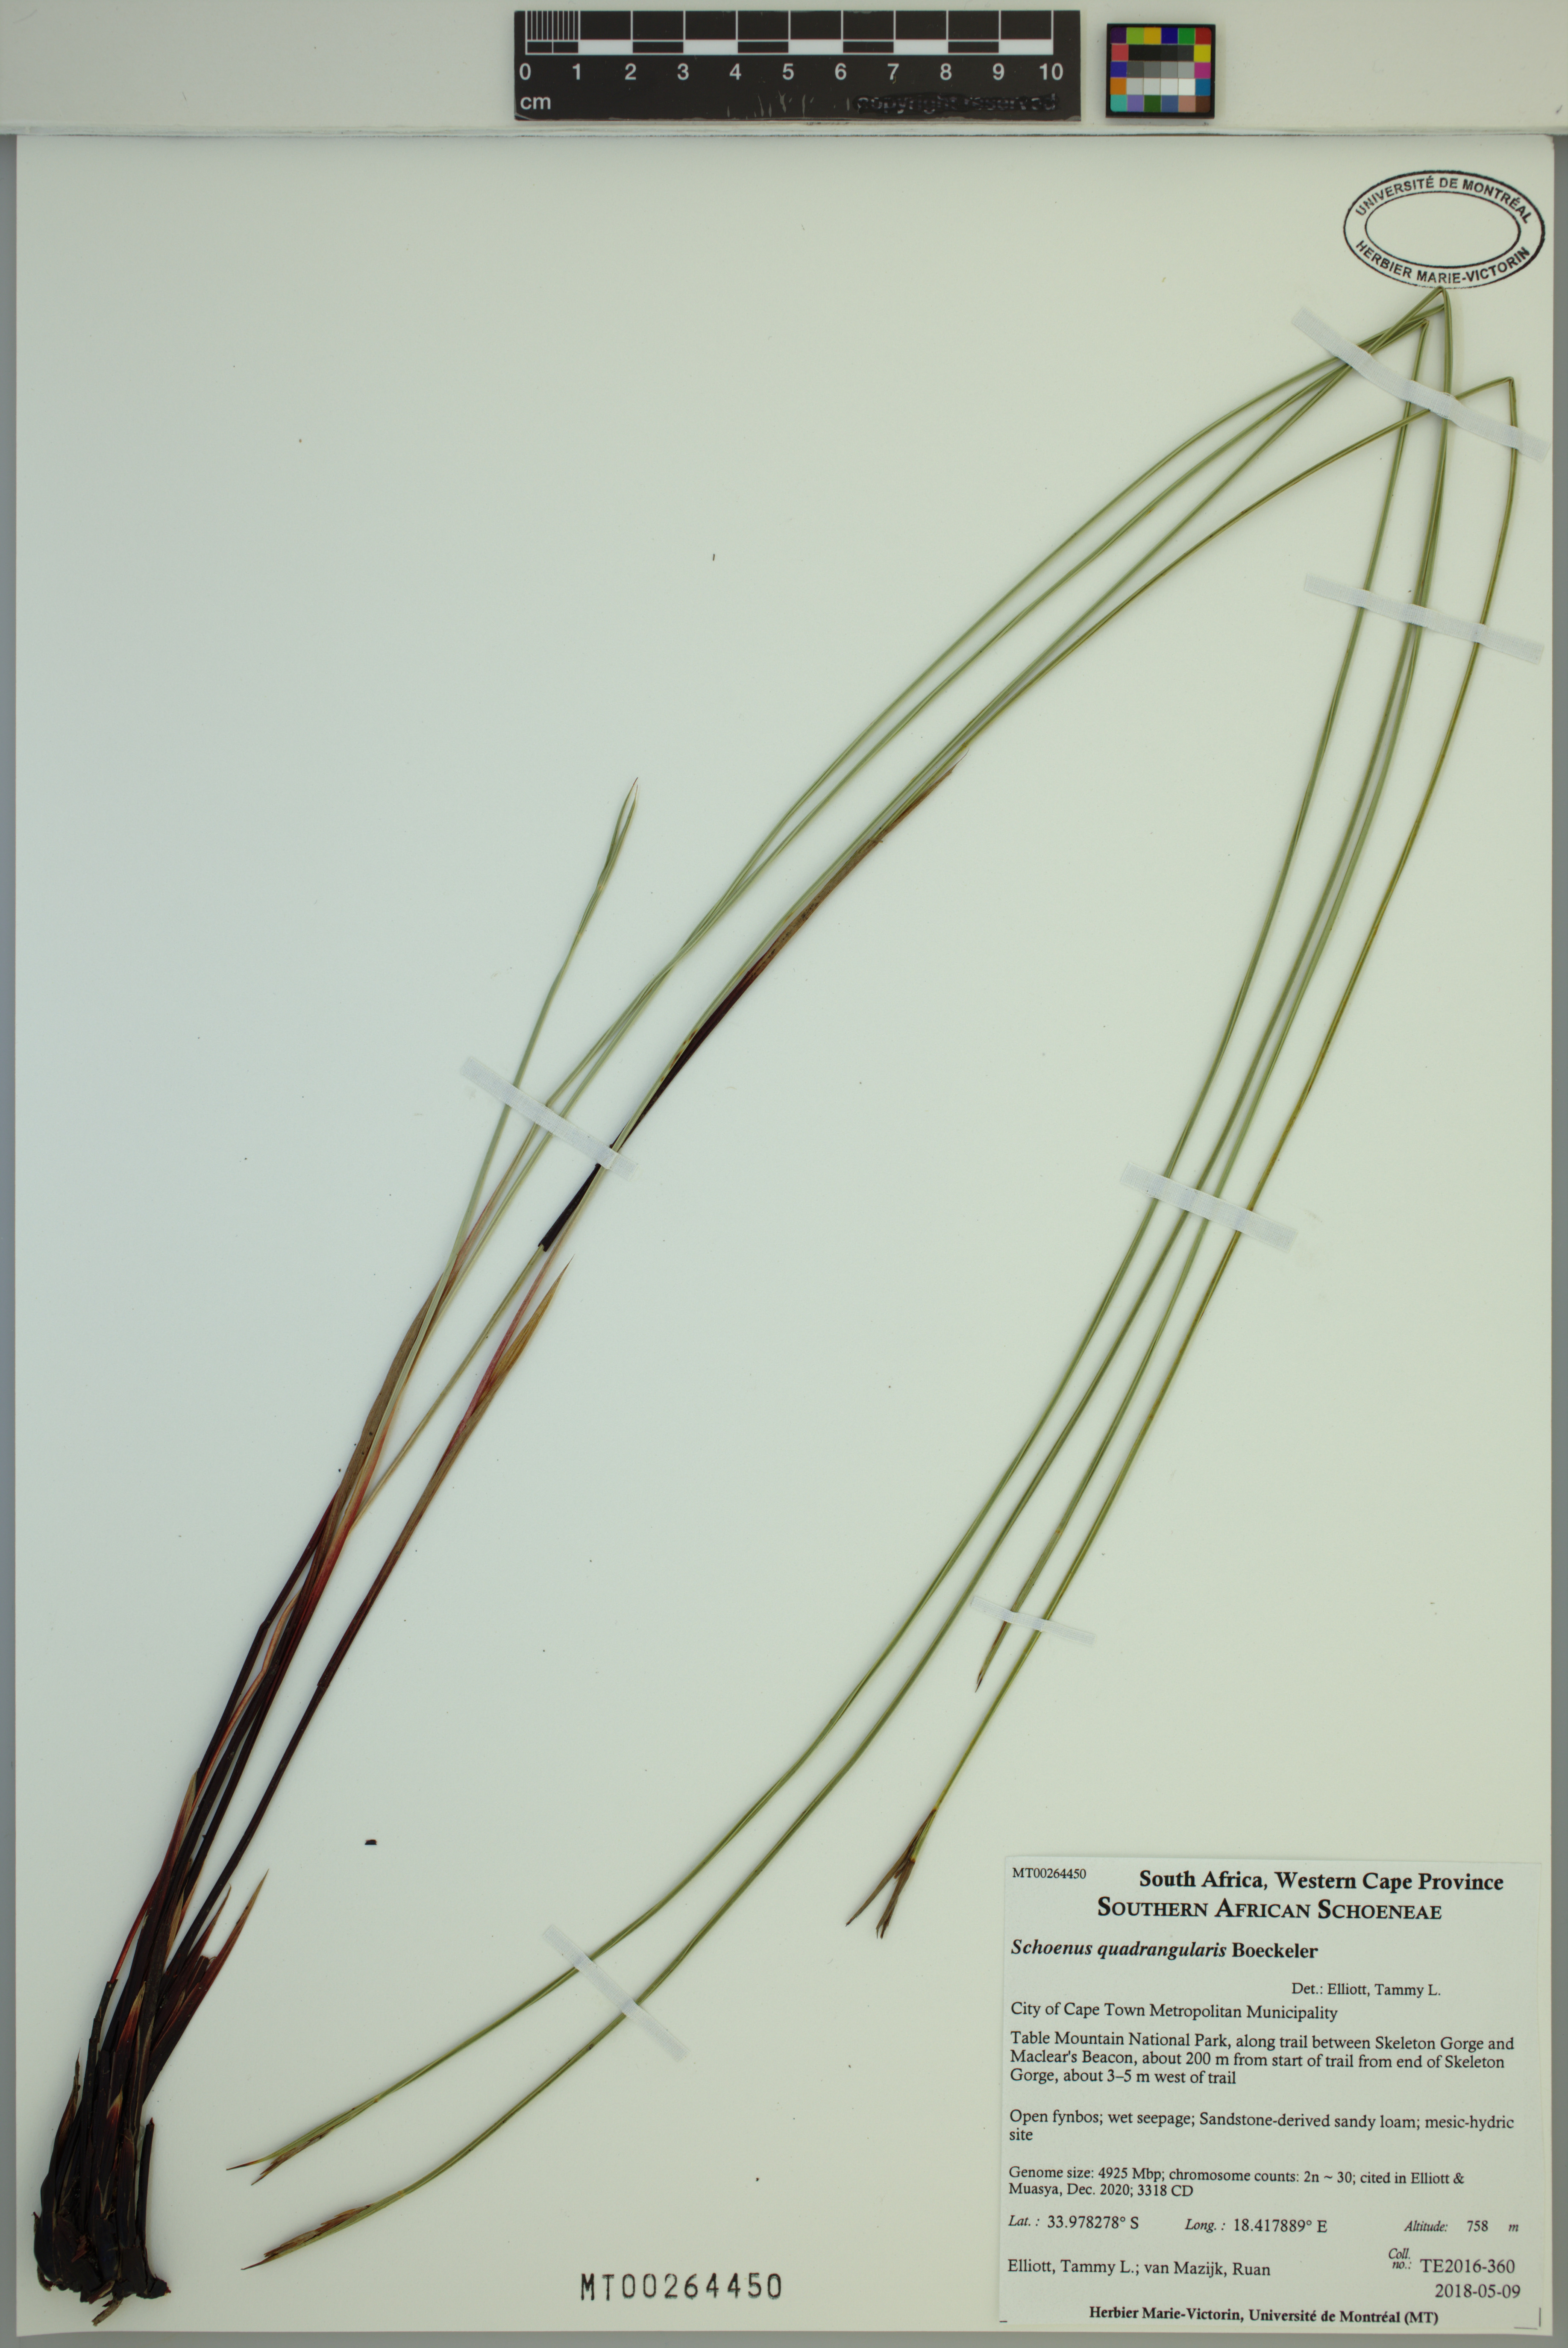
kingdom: Plantae
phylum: Tracheophyta
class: Liliopsida
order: Poales
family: Cyperaceae
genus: Schoenus
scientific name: Schoenus quadrangularis
